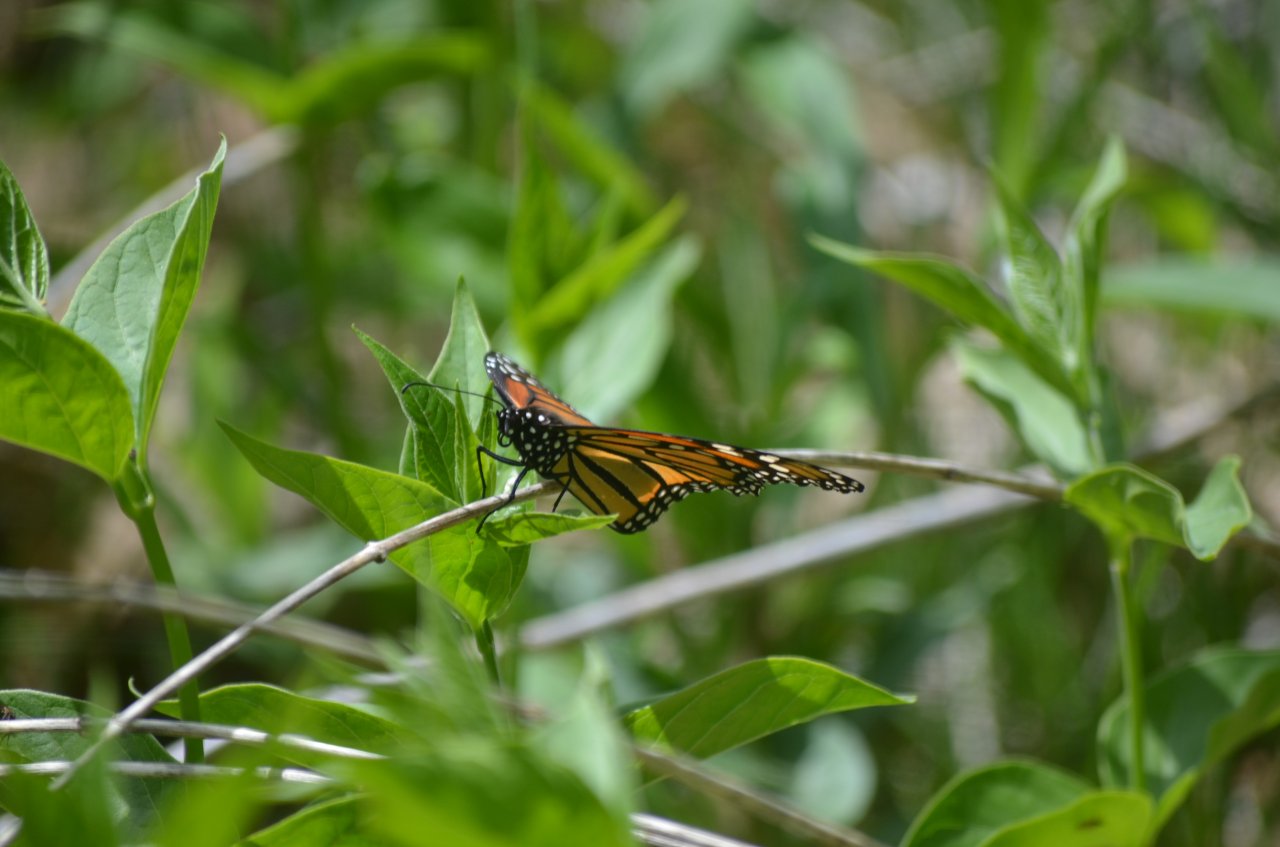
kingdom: Animalia
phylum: Arthropoda
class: Insecta
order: Lepidoptera
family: Nymphalidae
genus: Danaus
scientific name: Danaus plexippus
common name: Monarch
